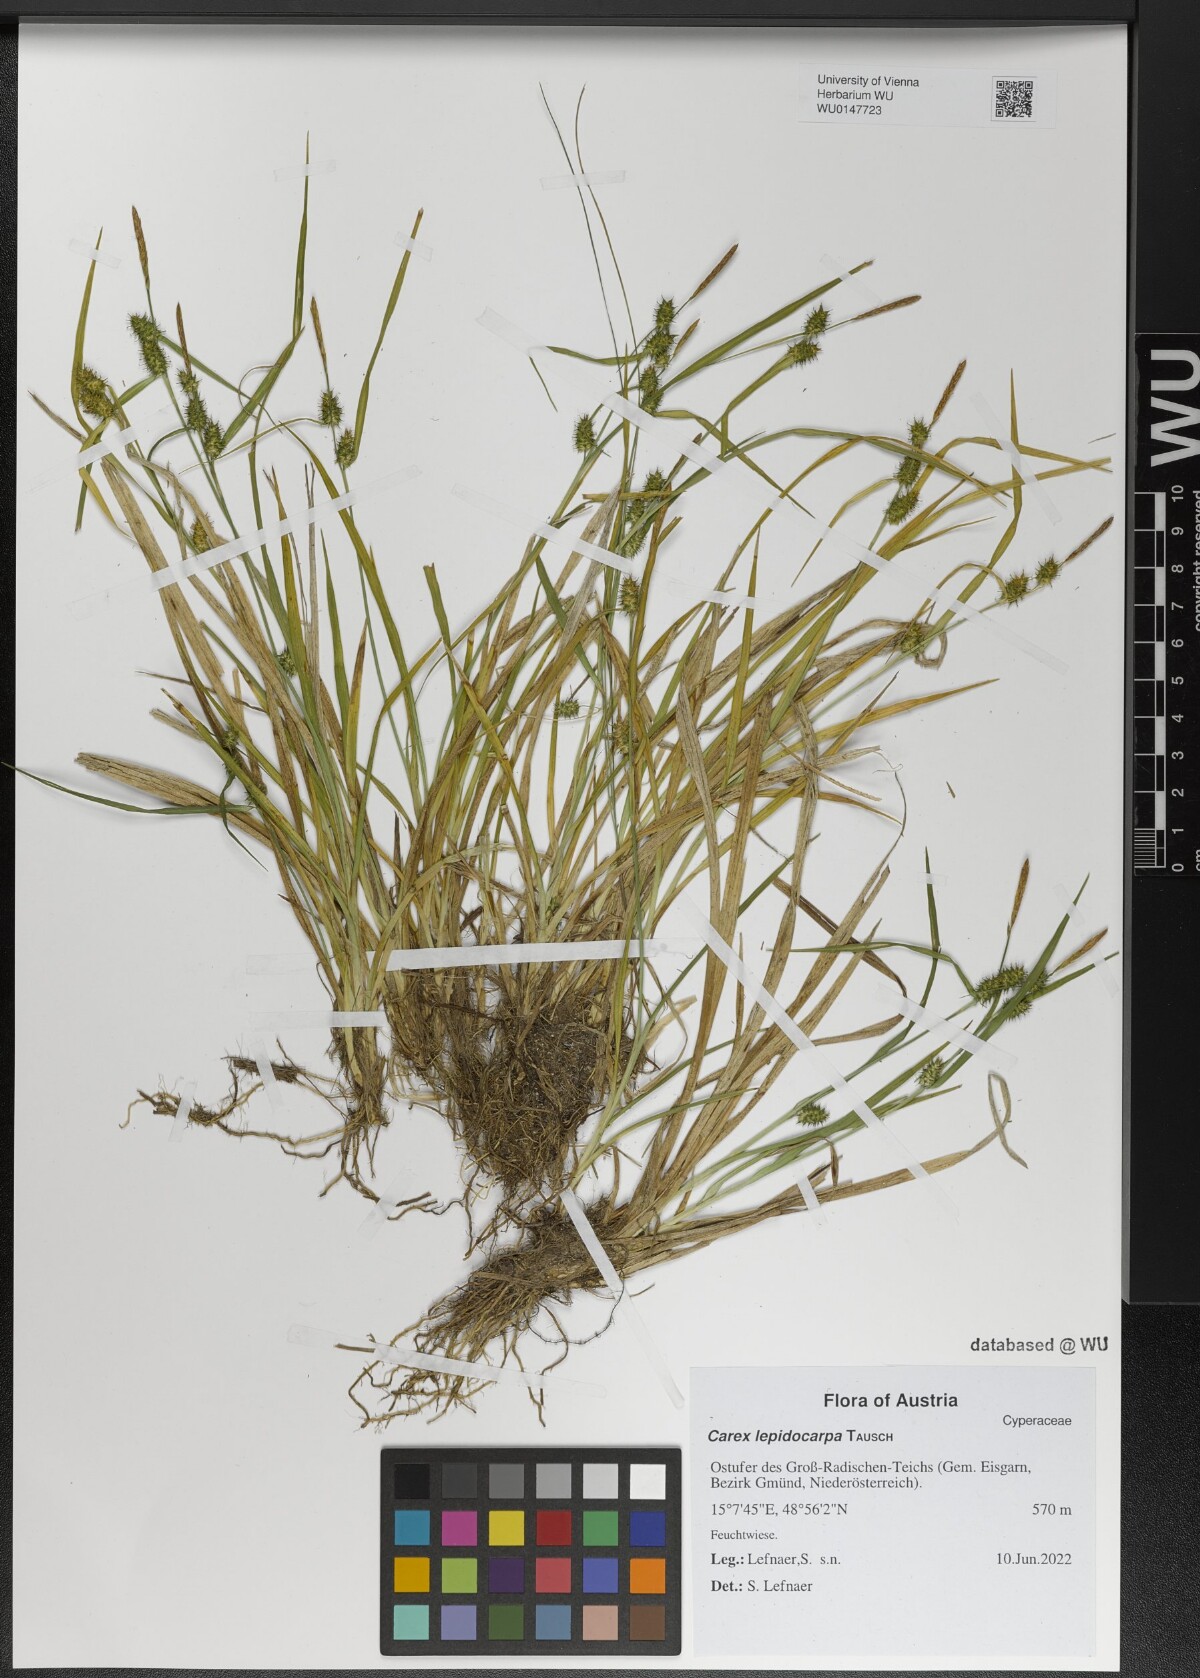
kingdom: Plantae
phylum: Tracheophyta
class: Liliopsida
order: Poales
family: Cyperaceae
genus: Carex
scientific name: Carex lepidocarpa
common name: Long-stalked yellow-sedge
